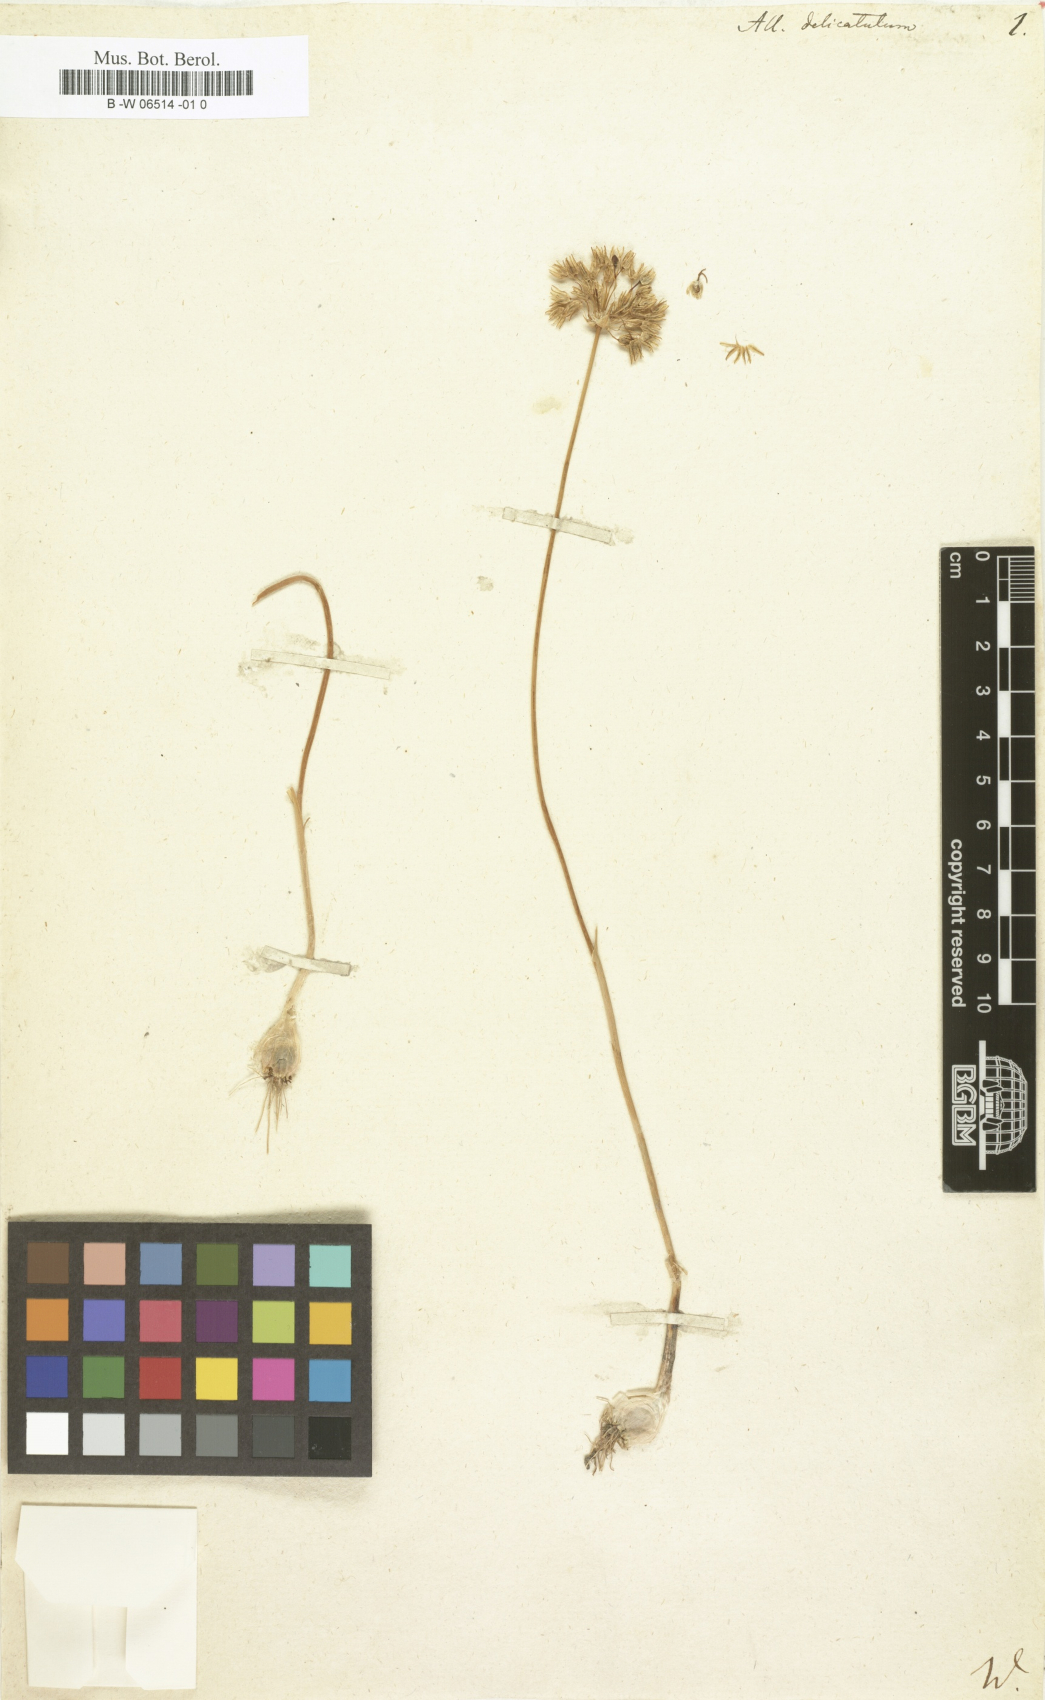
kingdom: Plantae
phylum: Tracheophyta
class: Liliopsida
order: Asparagales
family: Amaryllidaceae
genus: Allium
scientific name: Allium delicatulum
